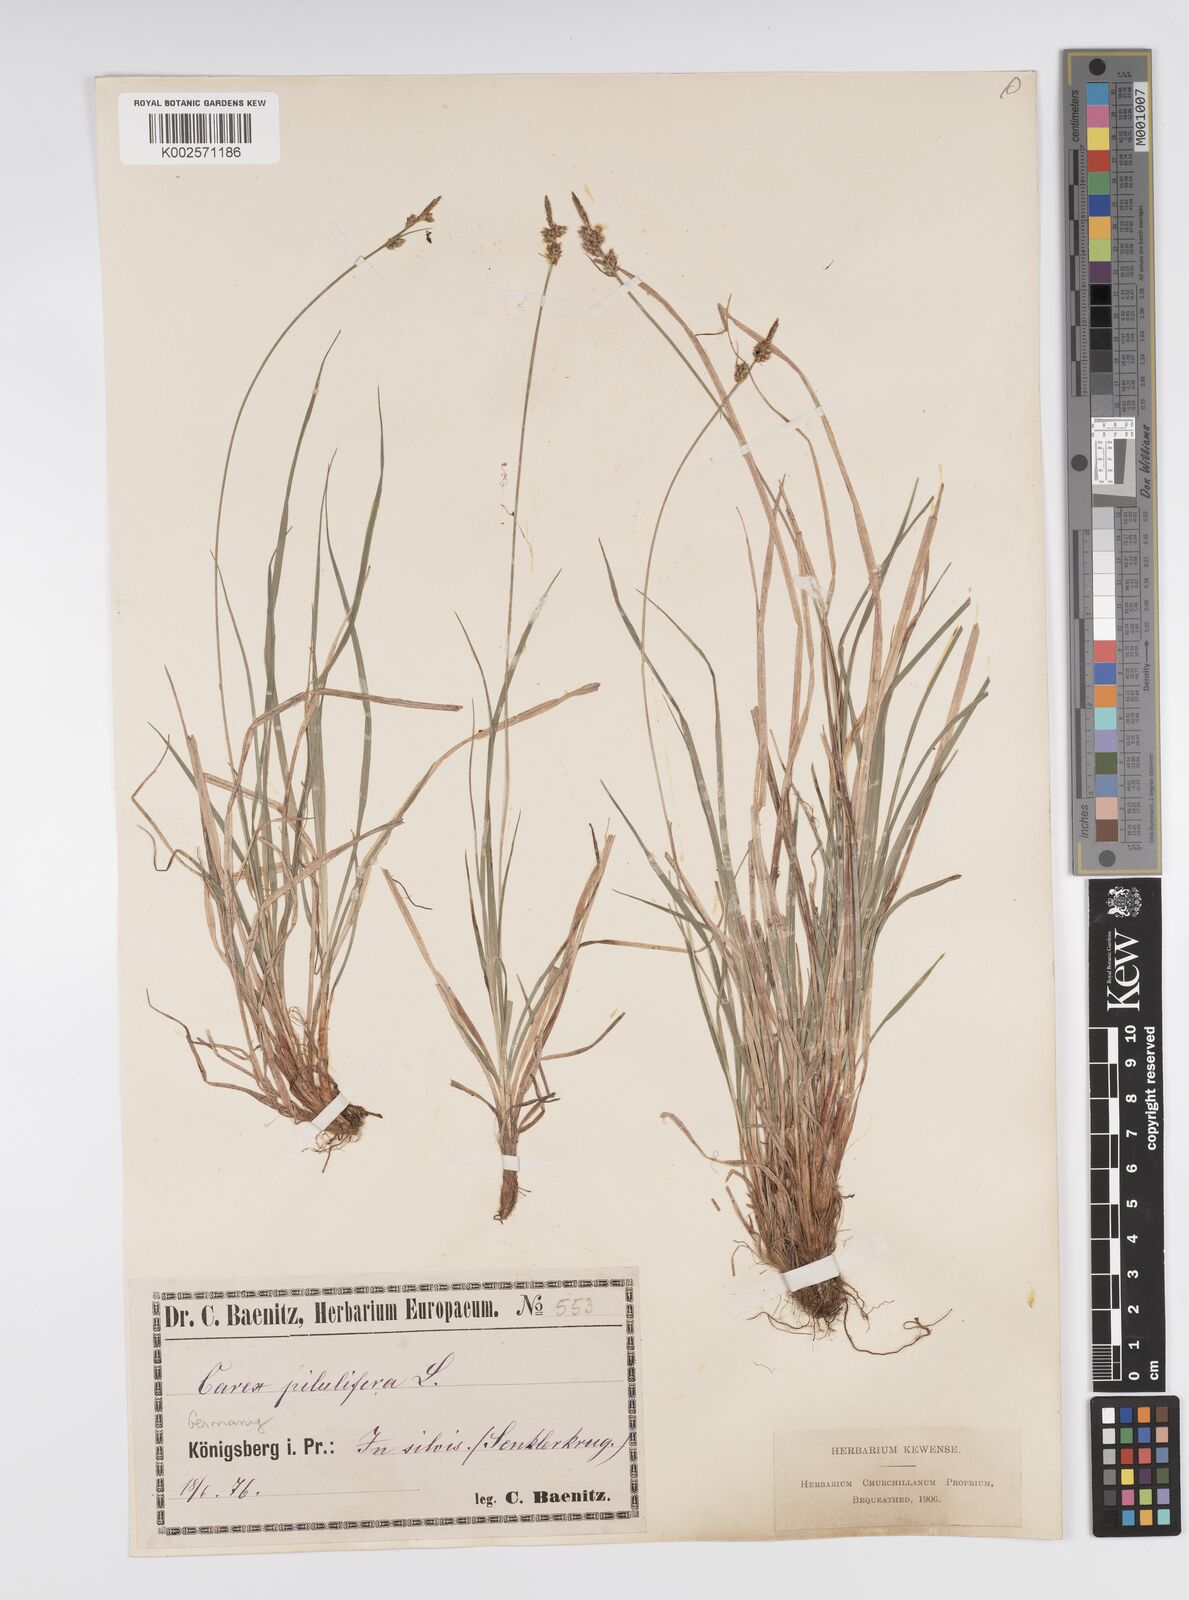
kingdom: Plantae
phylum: Tracheophyta
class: Liliopsida
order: Poales
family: Cyperaceae
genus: Carex
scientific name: Carex pilulifera
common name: Pill sedge
